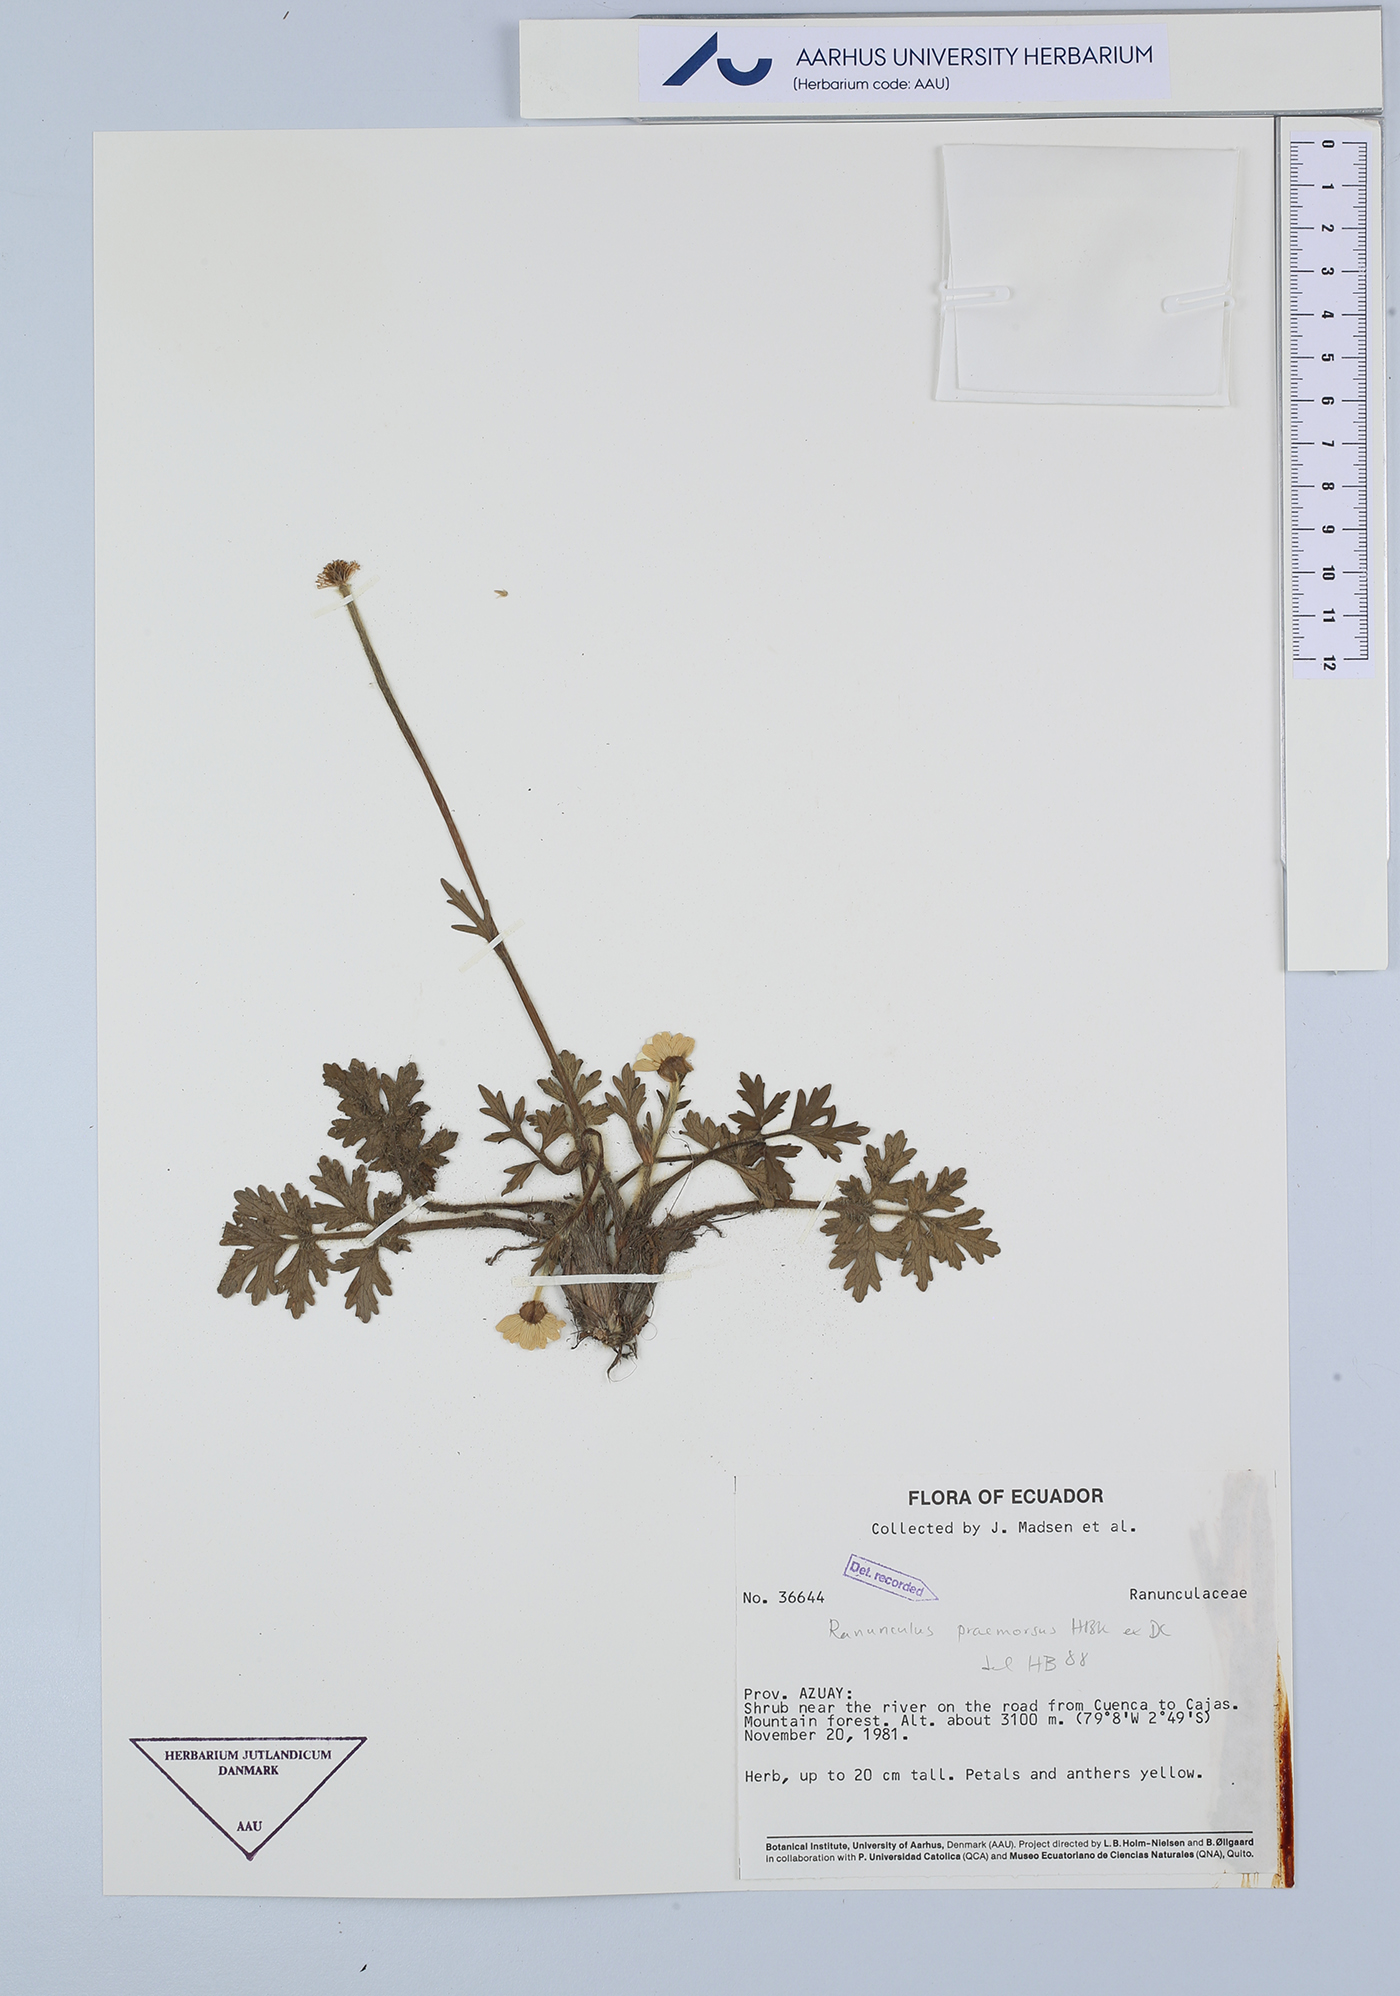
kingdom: Plantae
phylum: Tracheophyta
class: Magnoliopsida
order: Ranunculales
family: Ranunculaceae
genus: Ranunculus
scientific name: Ranunculus praemorsus
